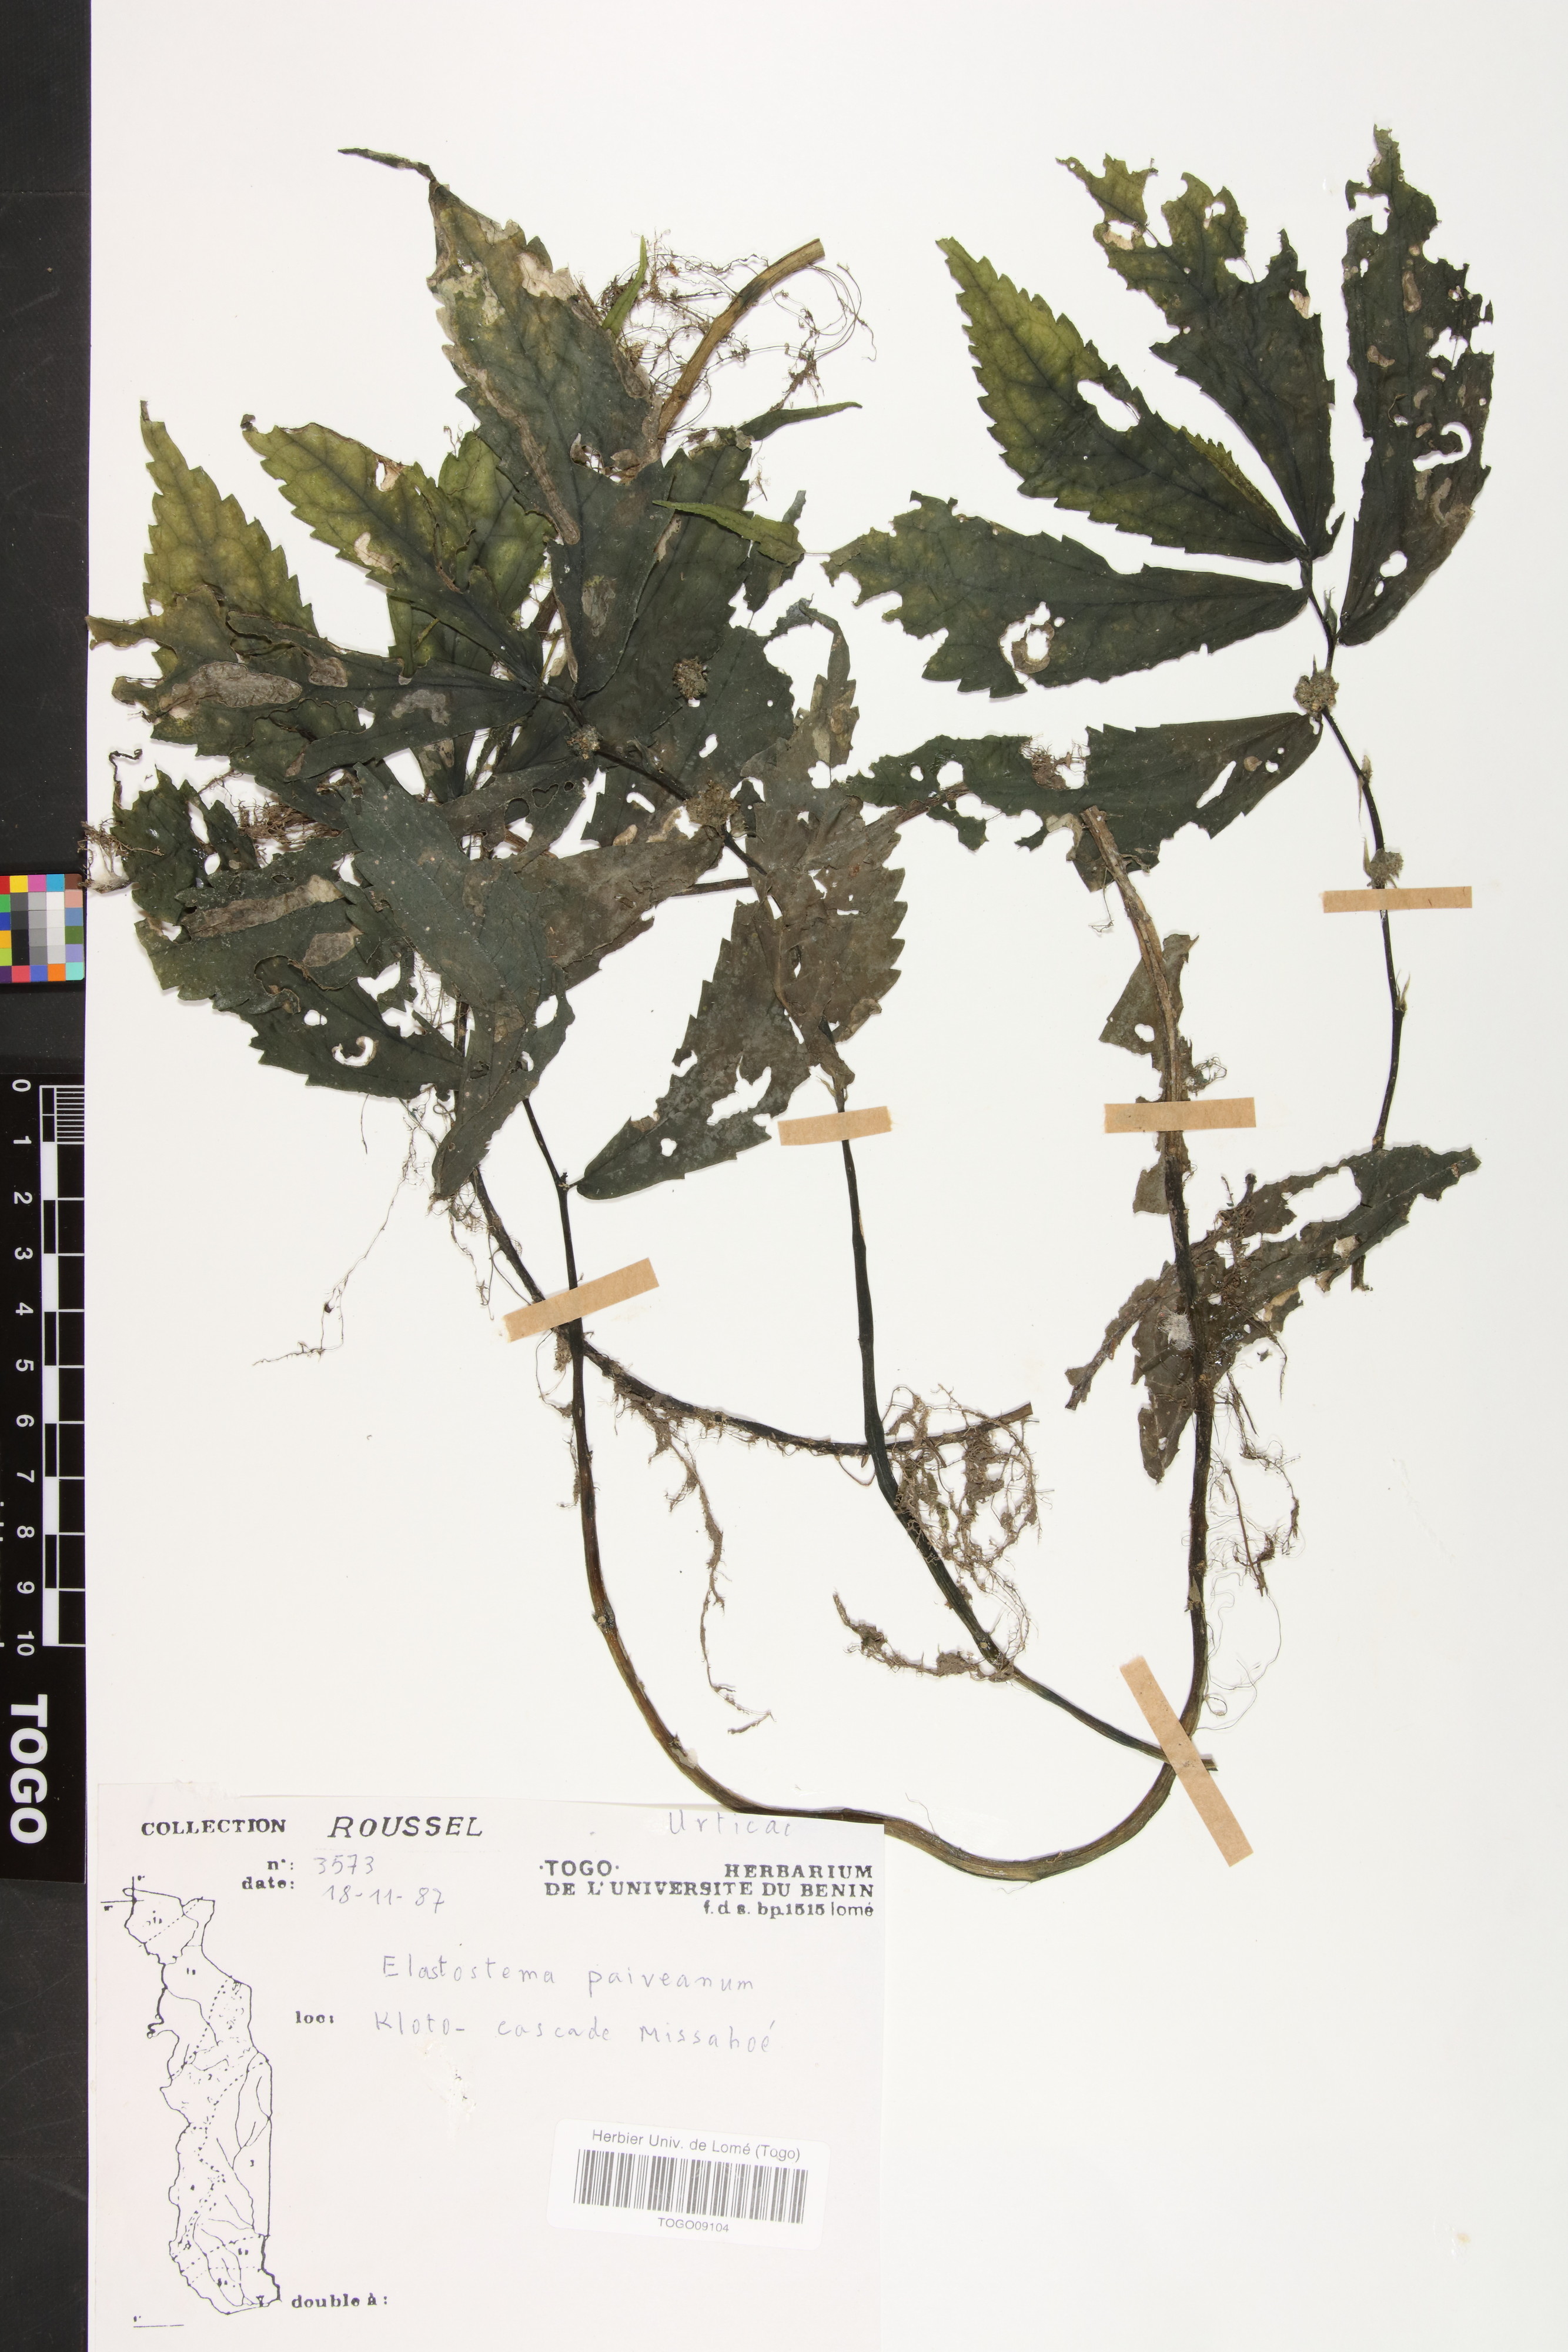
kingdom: Plantae
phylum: Tracheophyta
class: Magnoliopsida
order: Rosales
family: Urticaceae
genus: Elatostema
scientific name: Elatostema paivaeanum
